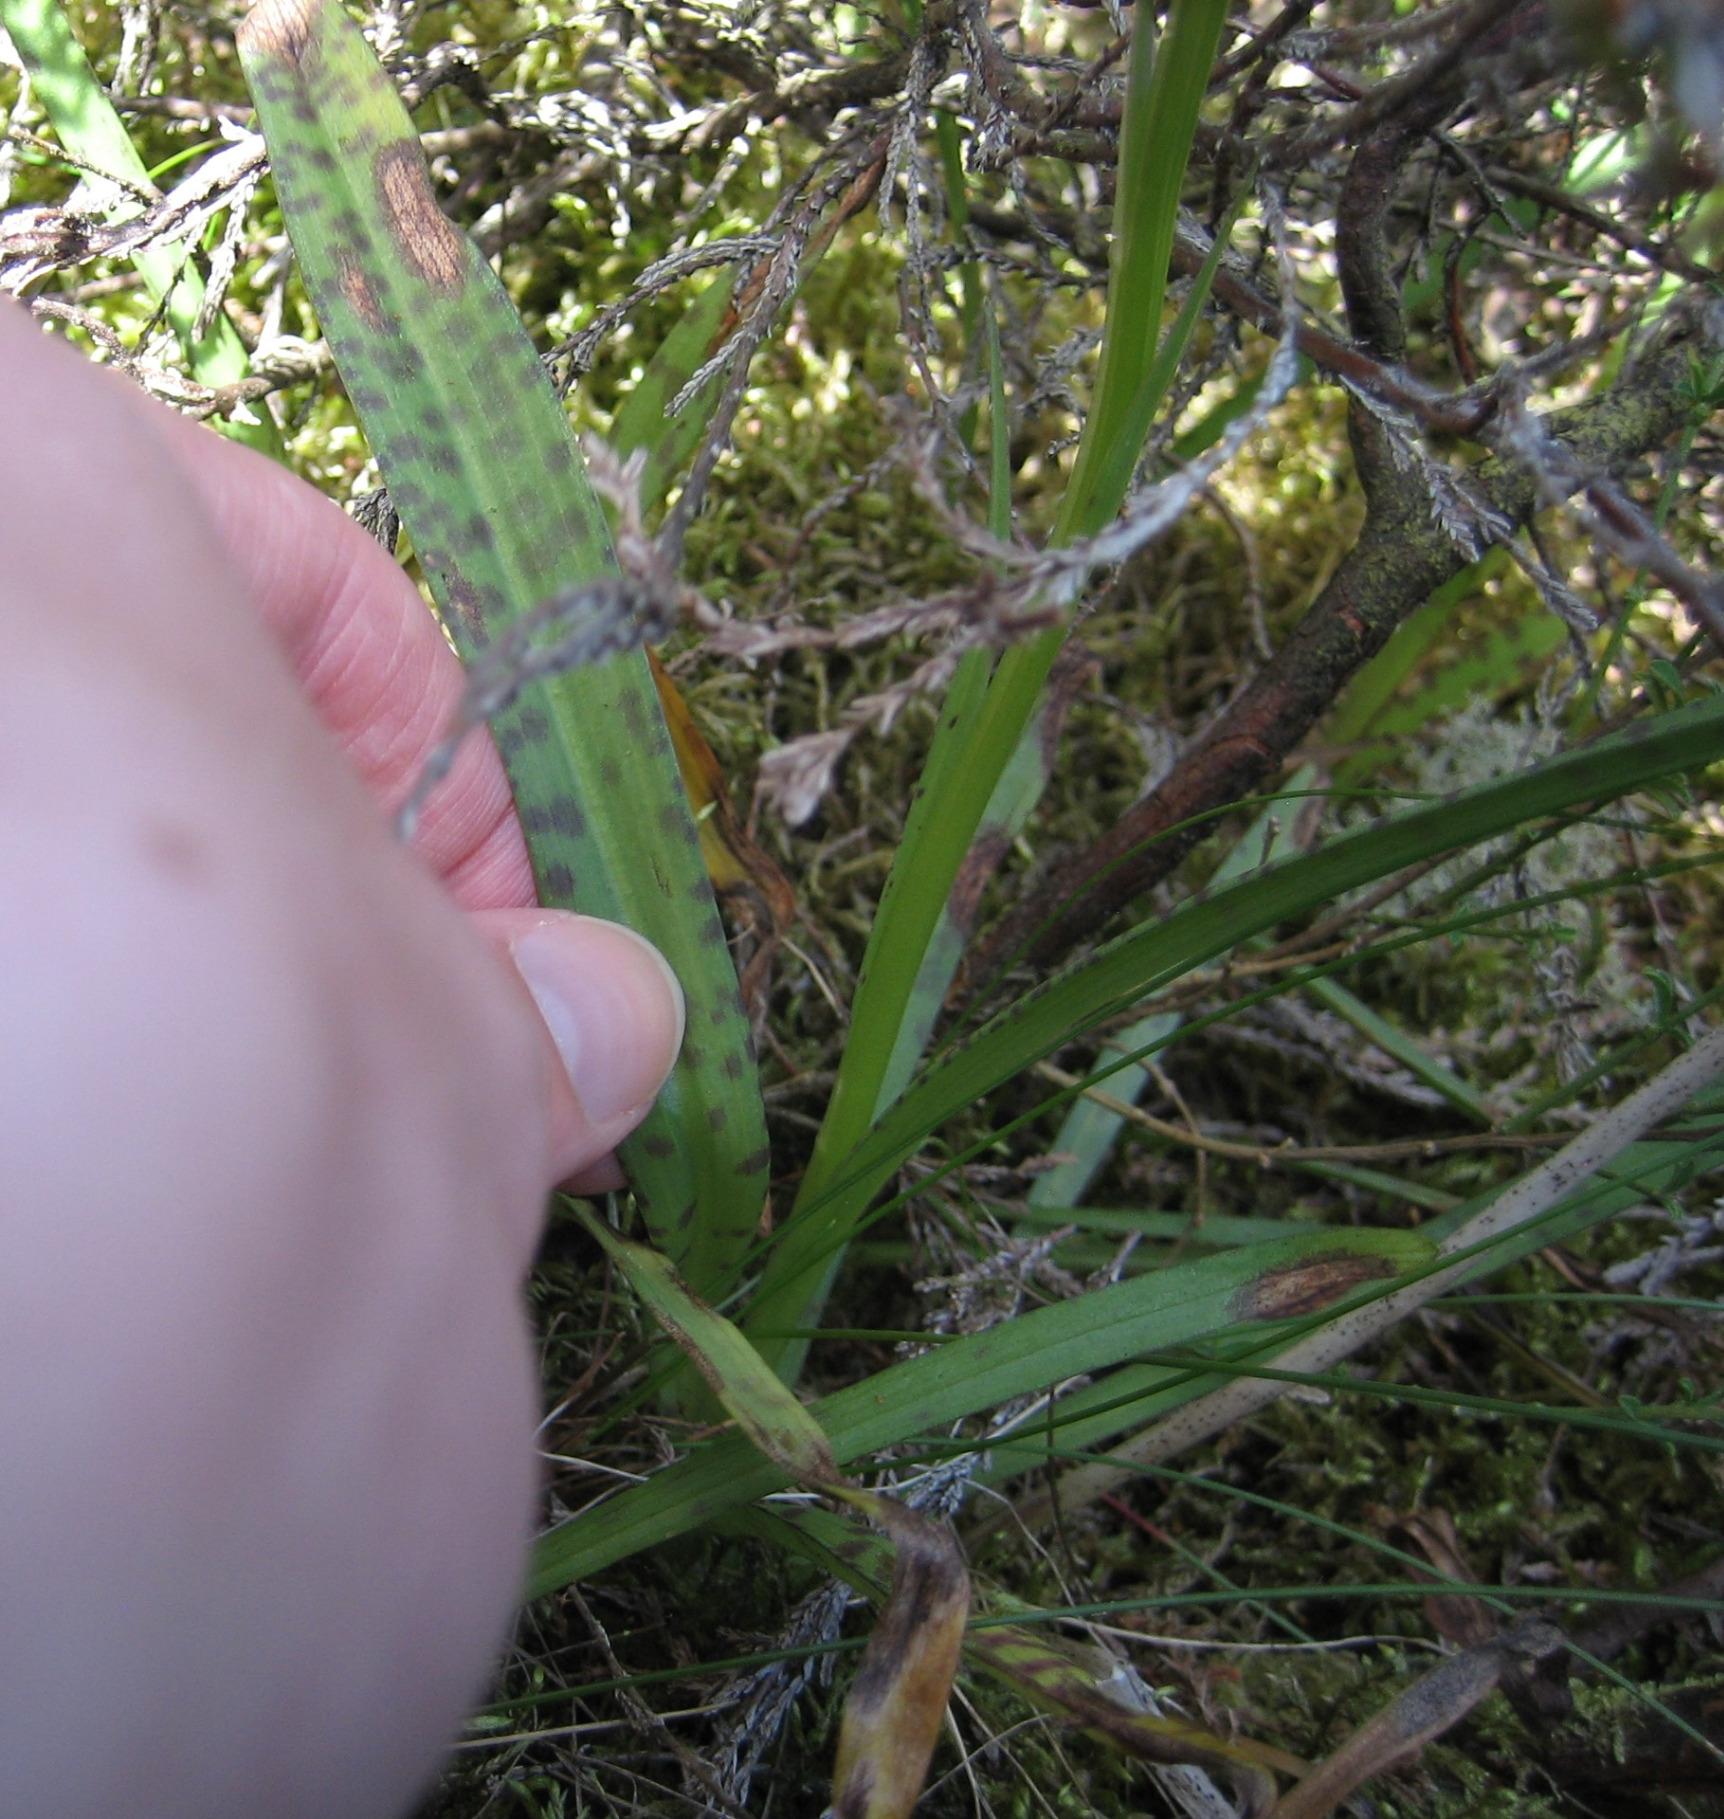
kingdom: Plantae
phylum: Tracheophyta
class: Liliopsida
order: Asparagales
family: Orchidaceae
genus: Dactylorhiza
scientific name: Dactylorhiza maculata
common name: Plettet gøgeurt (underart)
